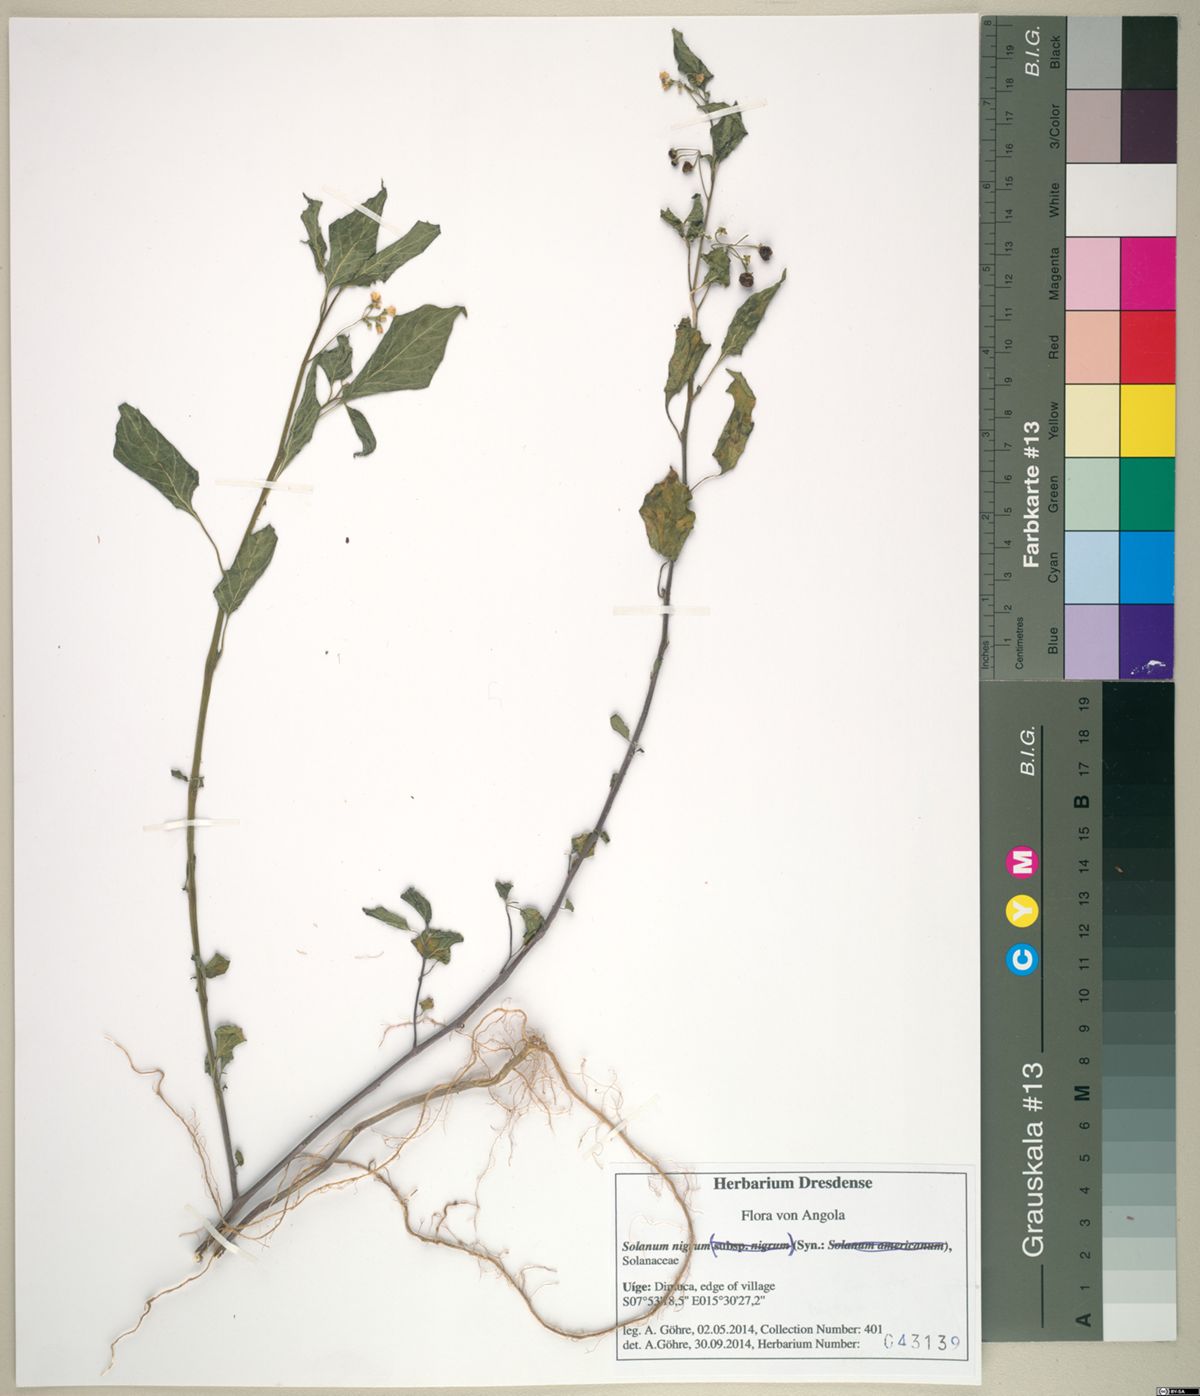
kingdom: Plantae
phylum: Tracheophyta
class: Magnoliopsida
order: Solanales
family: Solanaceae
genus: Solanum
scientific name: Solanum nigrum
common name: Black nightshade
